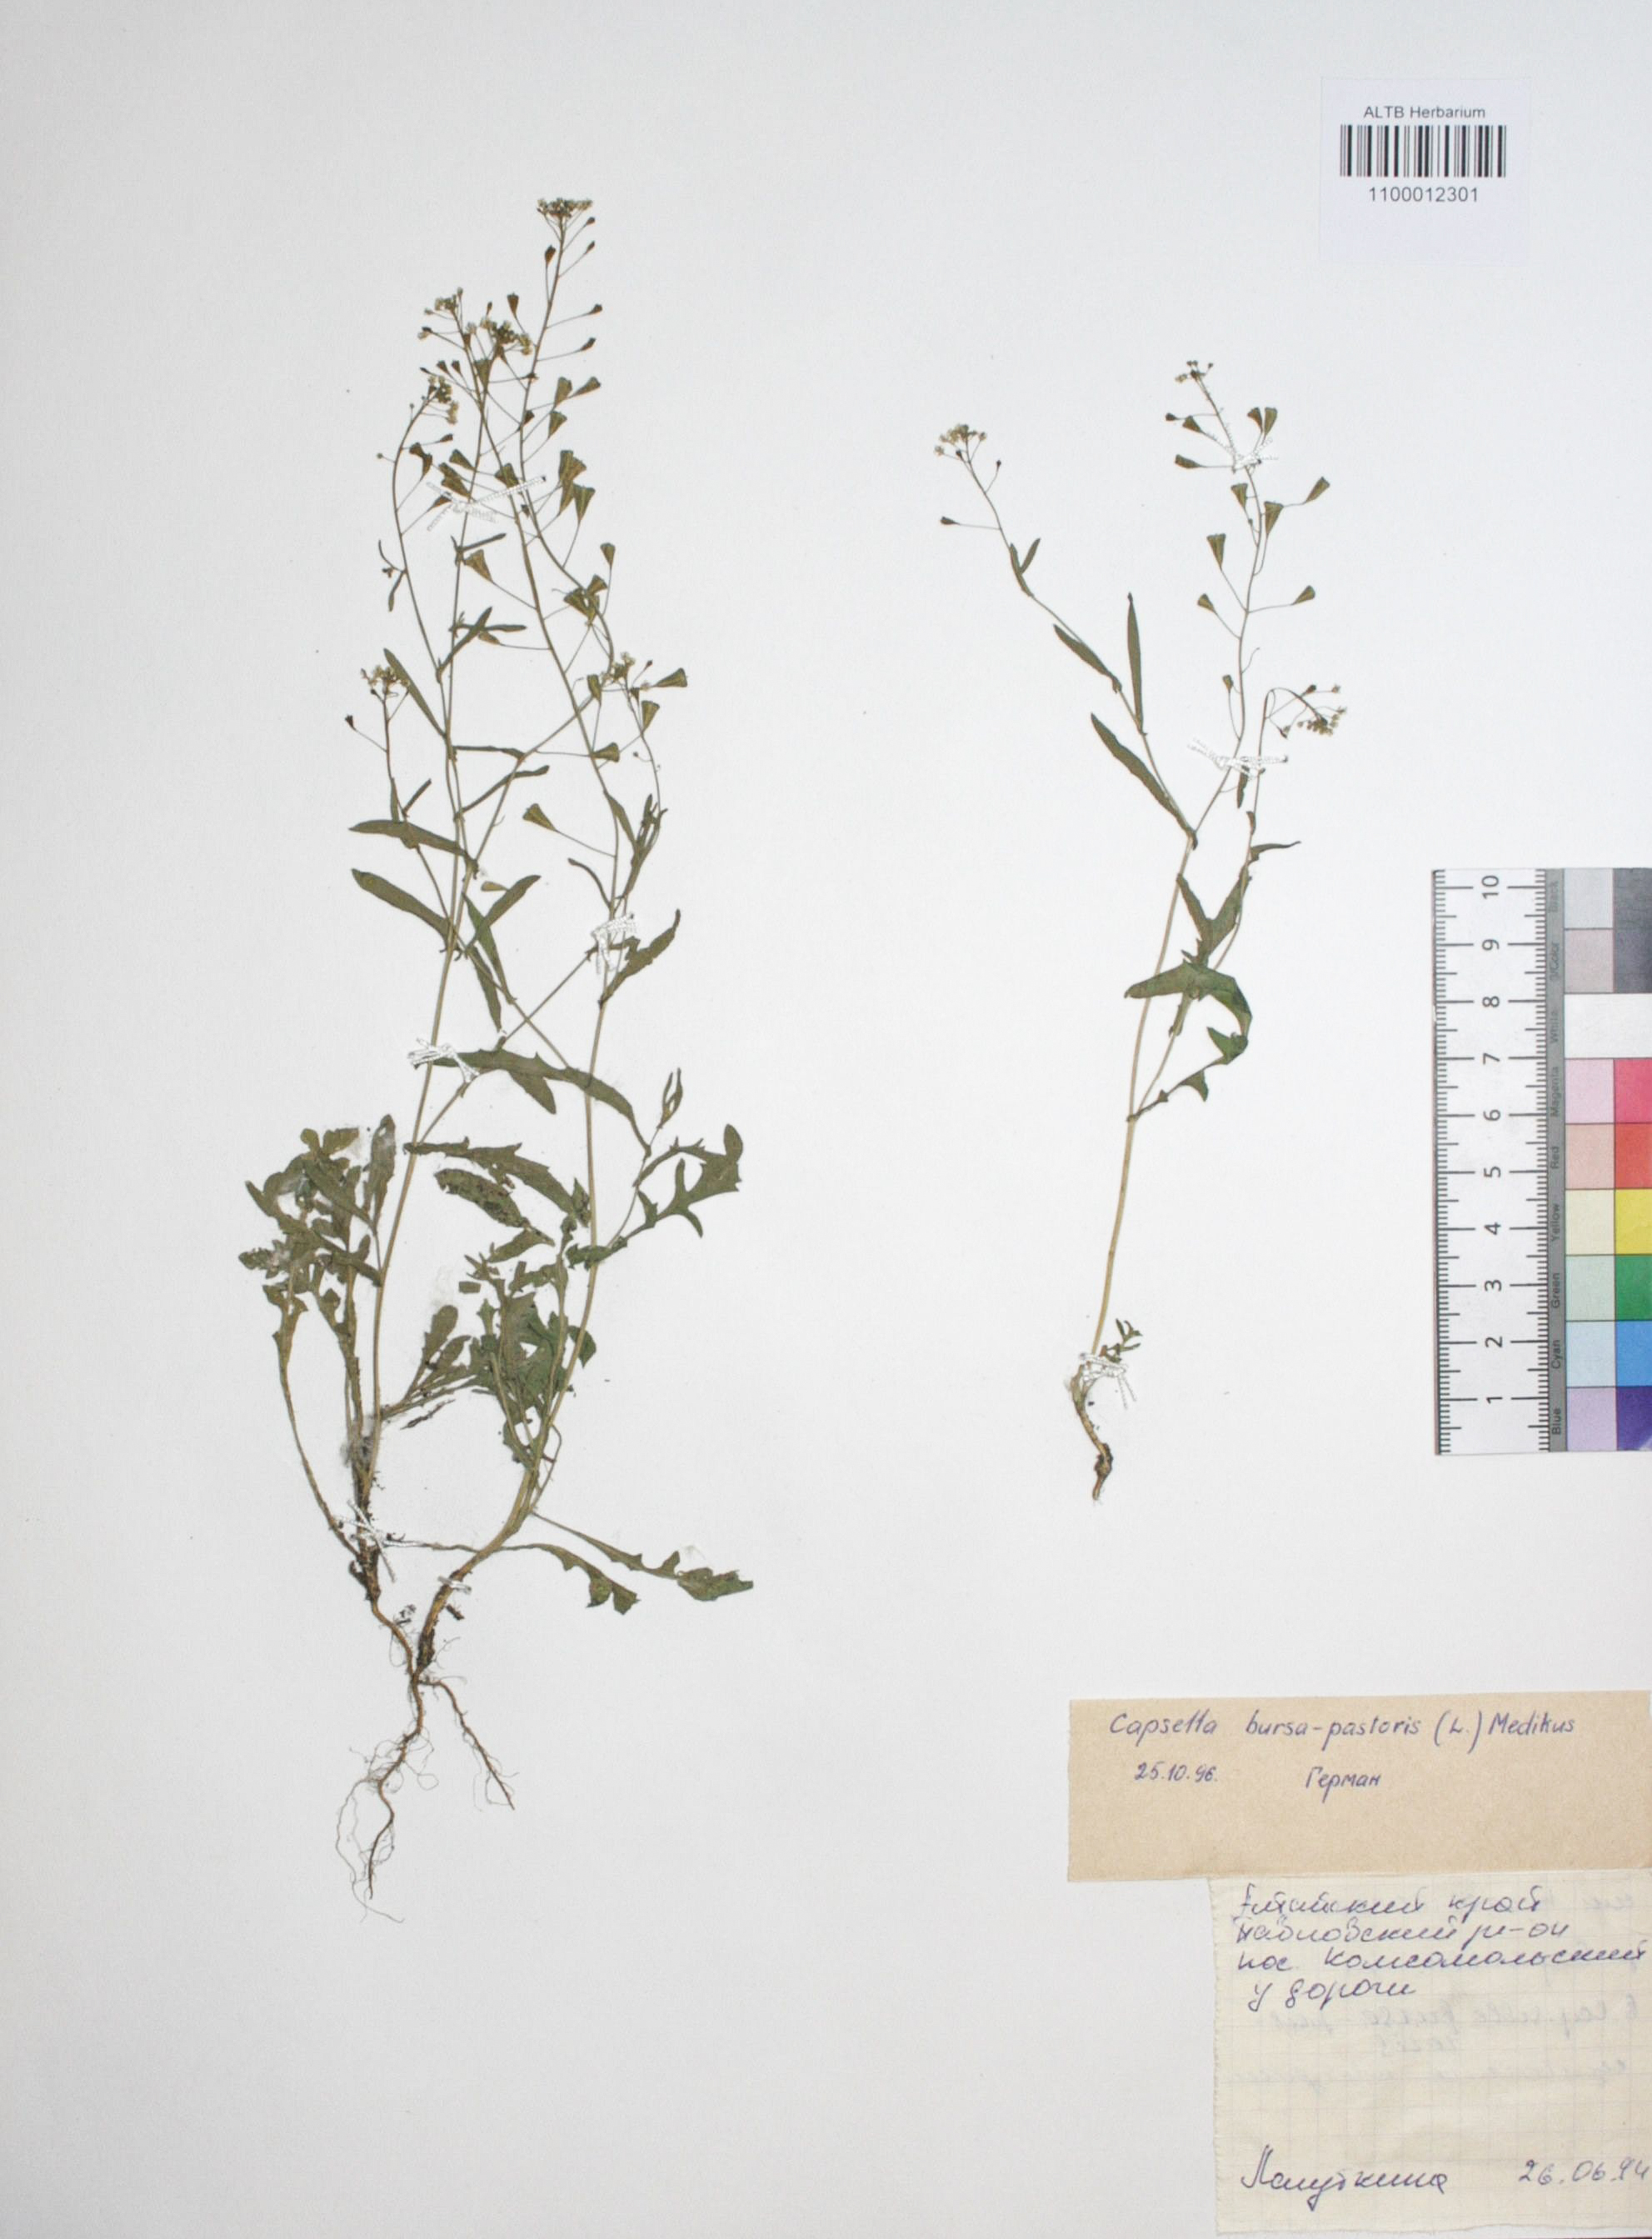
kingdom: Plantae
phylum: Tracheophyta
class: Magnoliopsida
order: Brassicales
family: Brassicaceae
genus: Capsella
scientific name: Capsella bursa-pastoris
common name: Shepherd's purse
